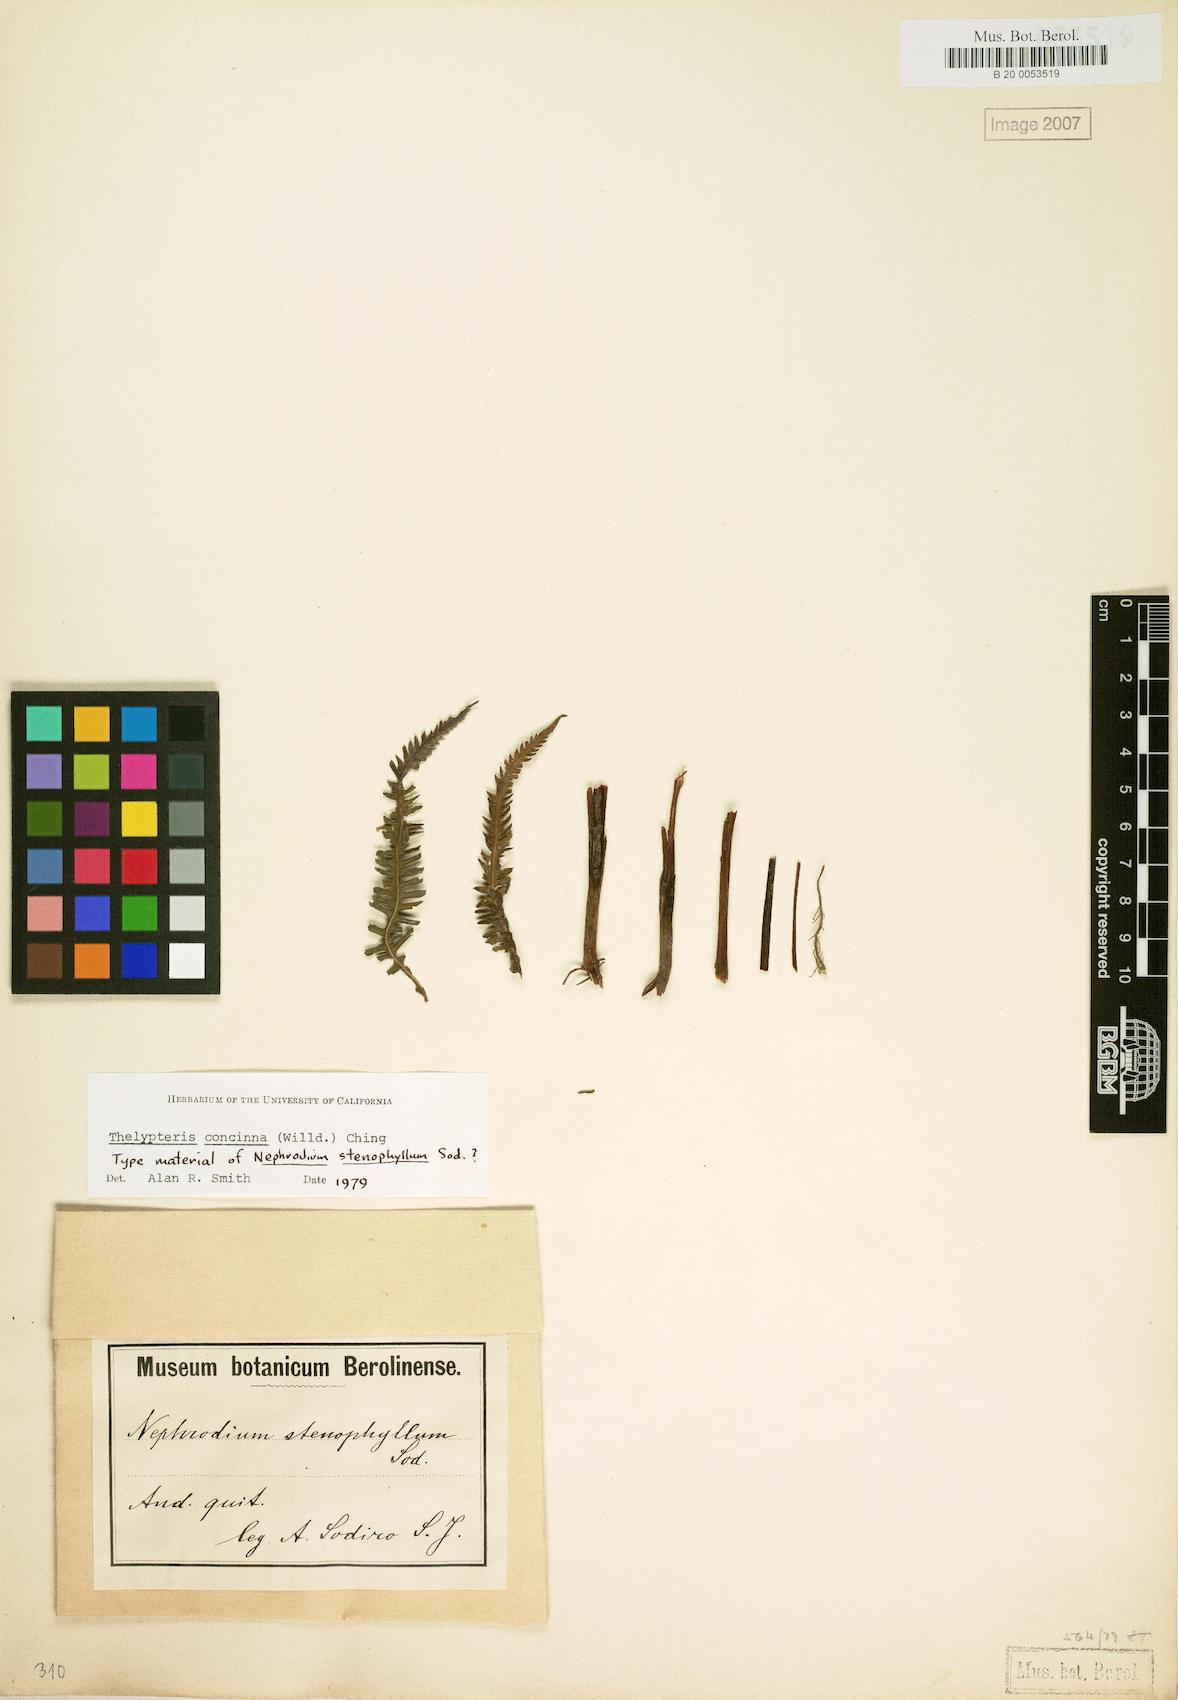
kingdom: Plantae
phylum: Tracheophyta
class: Polypodiopsida
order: Polypodiales
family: Thelypteridaceae
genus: Amauropelta
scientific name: Amauropelta concinna
